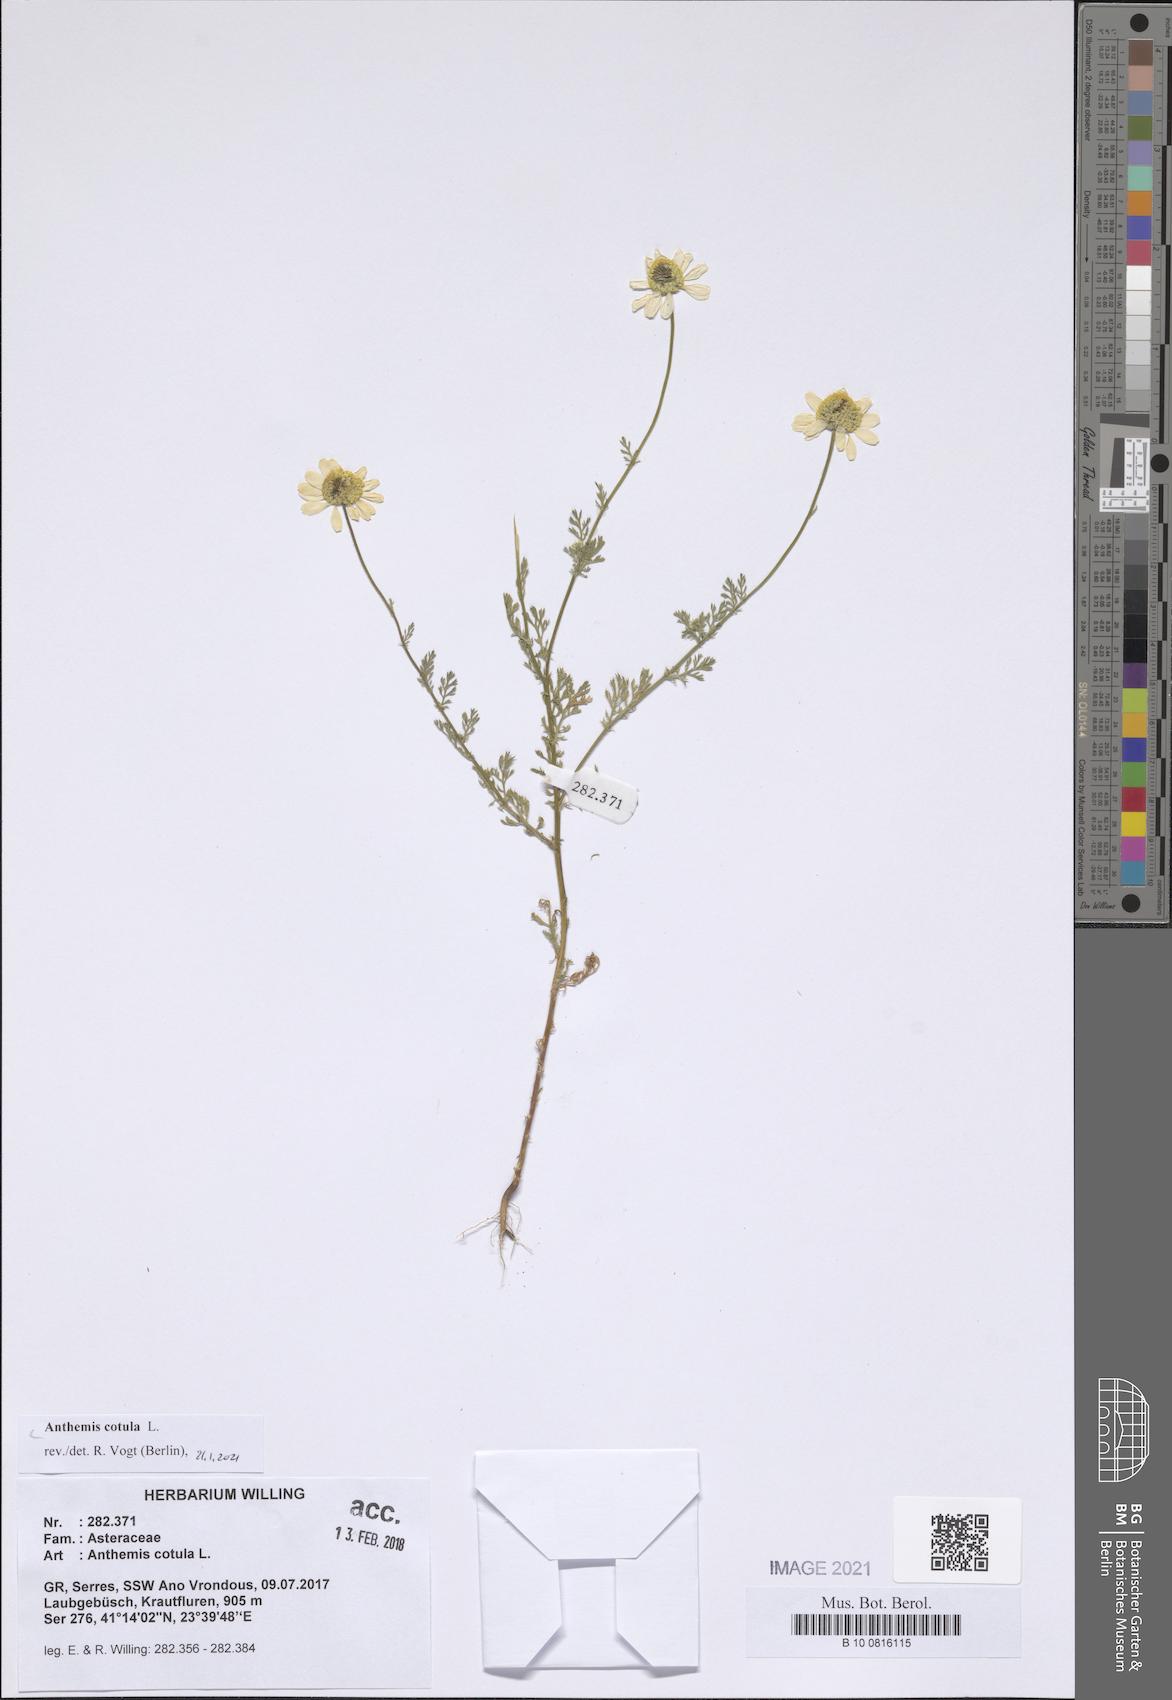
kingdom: Plantae
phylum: Tracheophyta
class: Magnoliopsida
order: Asterales
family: Asteraceae
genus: Anthemis
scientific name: Anthemis cotula
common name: Stinking chamomile
